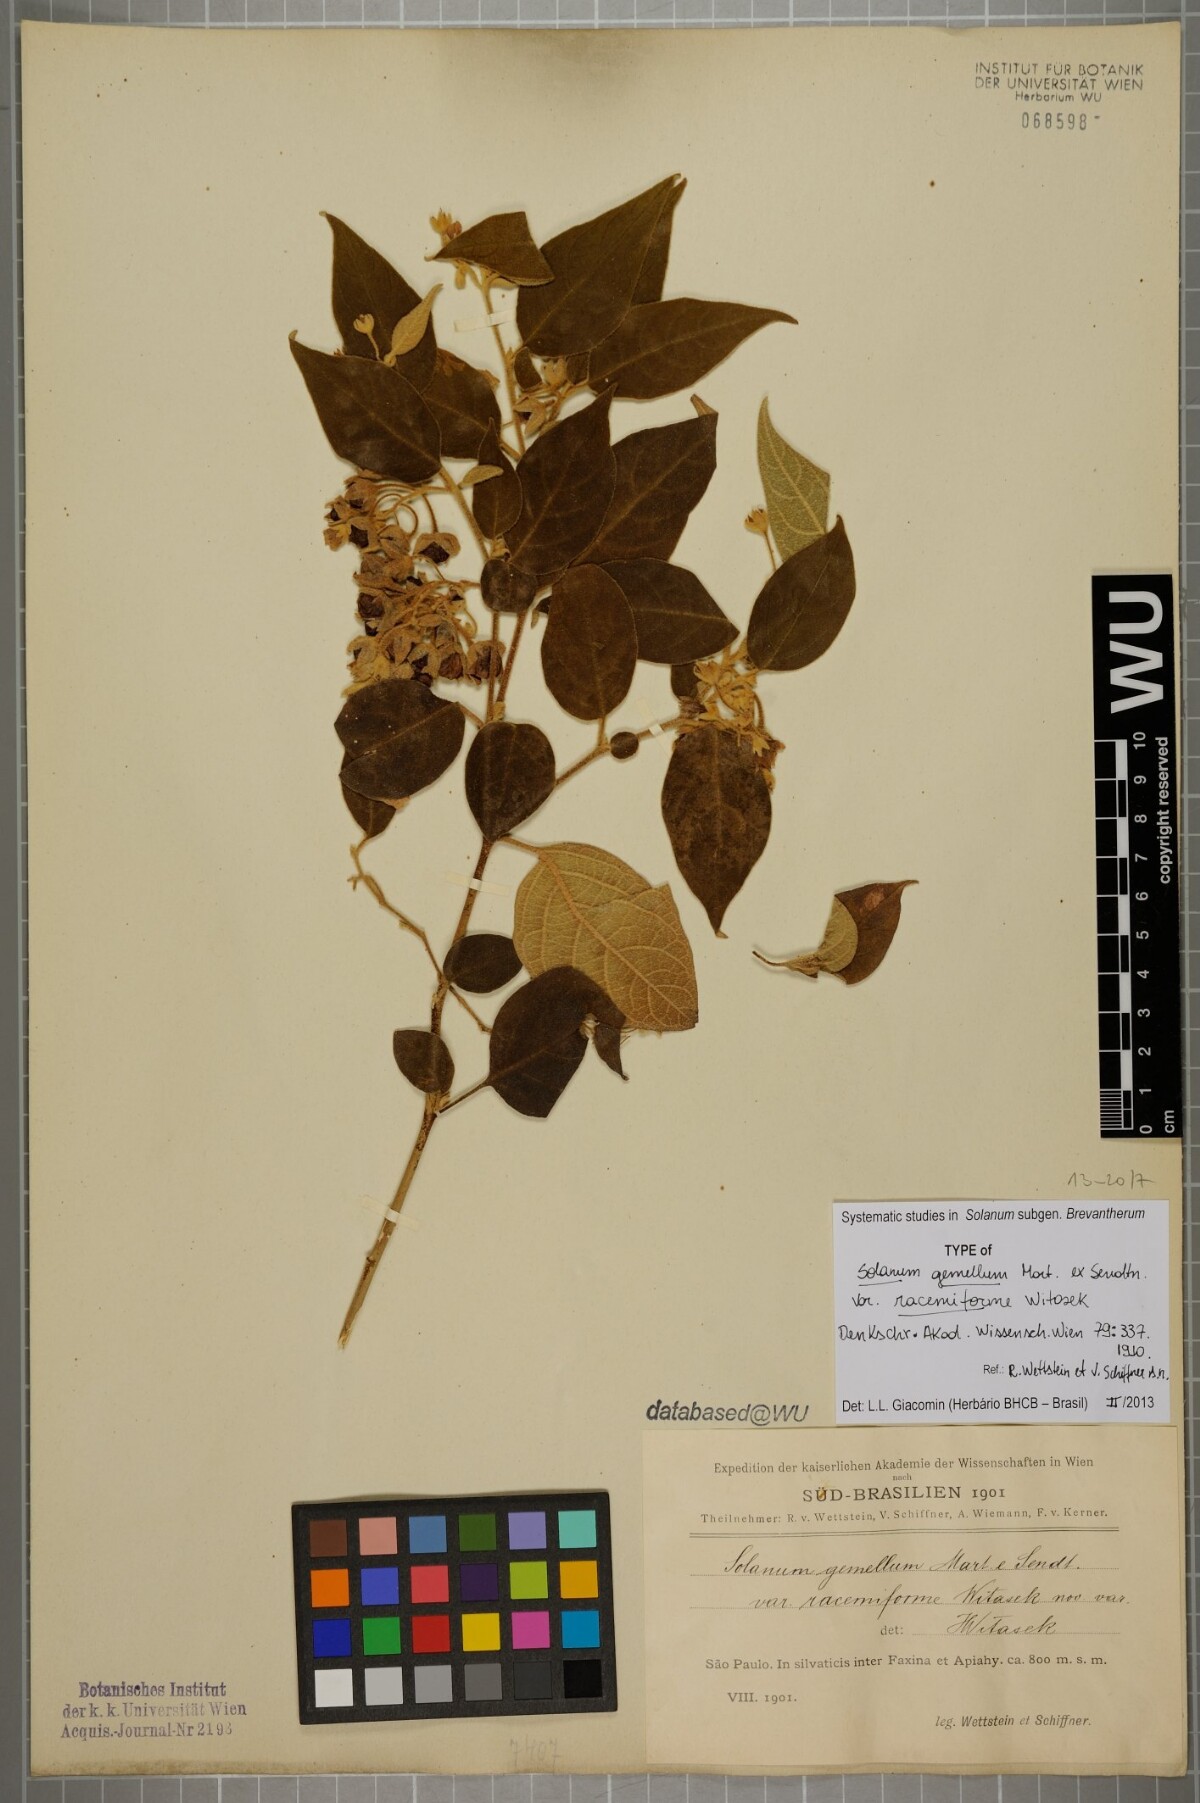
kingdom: Plantae
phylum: Tracheophyta
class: Magnoliopsida
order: Solanales
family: Solanaceae
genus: Solanum
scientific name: Solanum didymum
